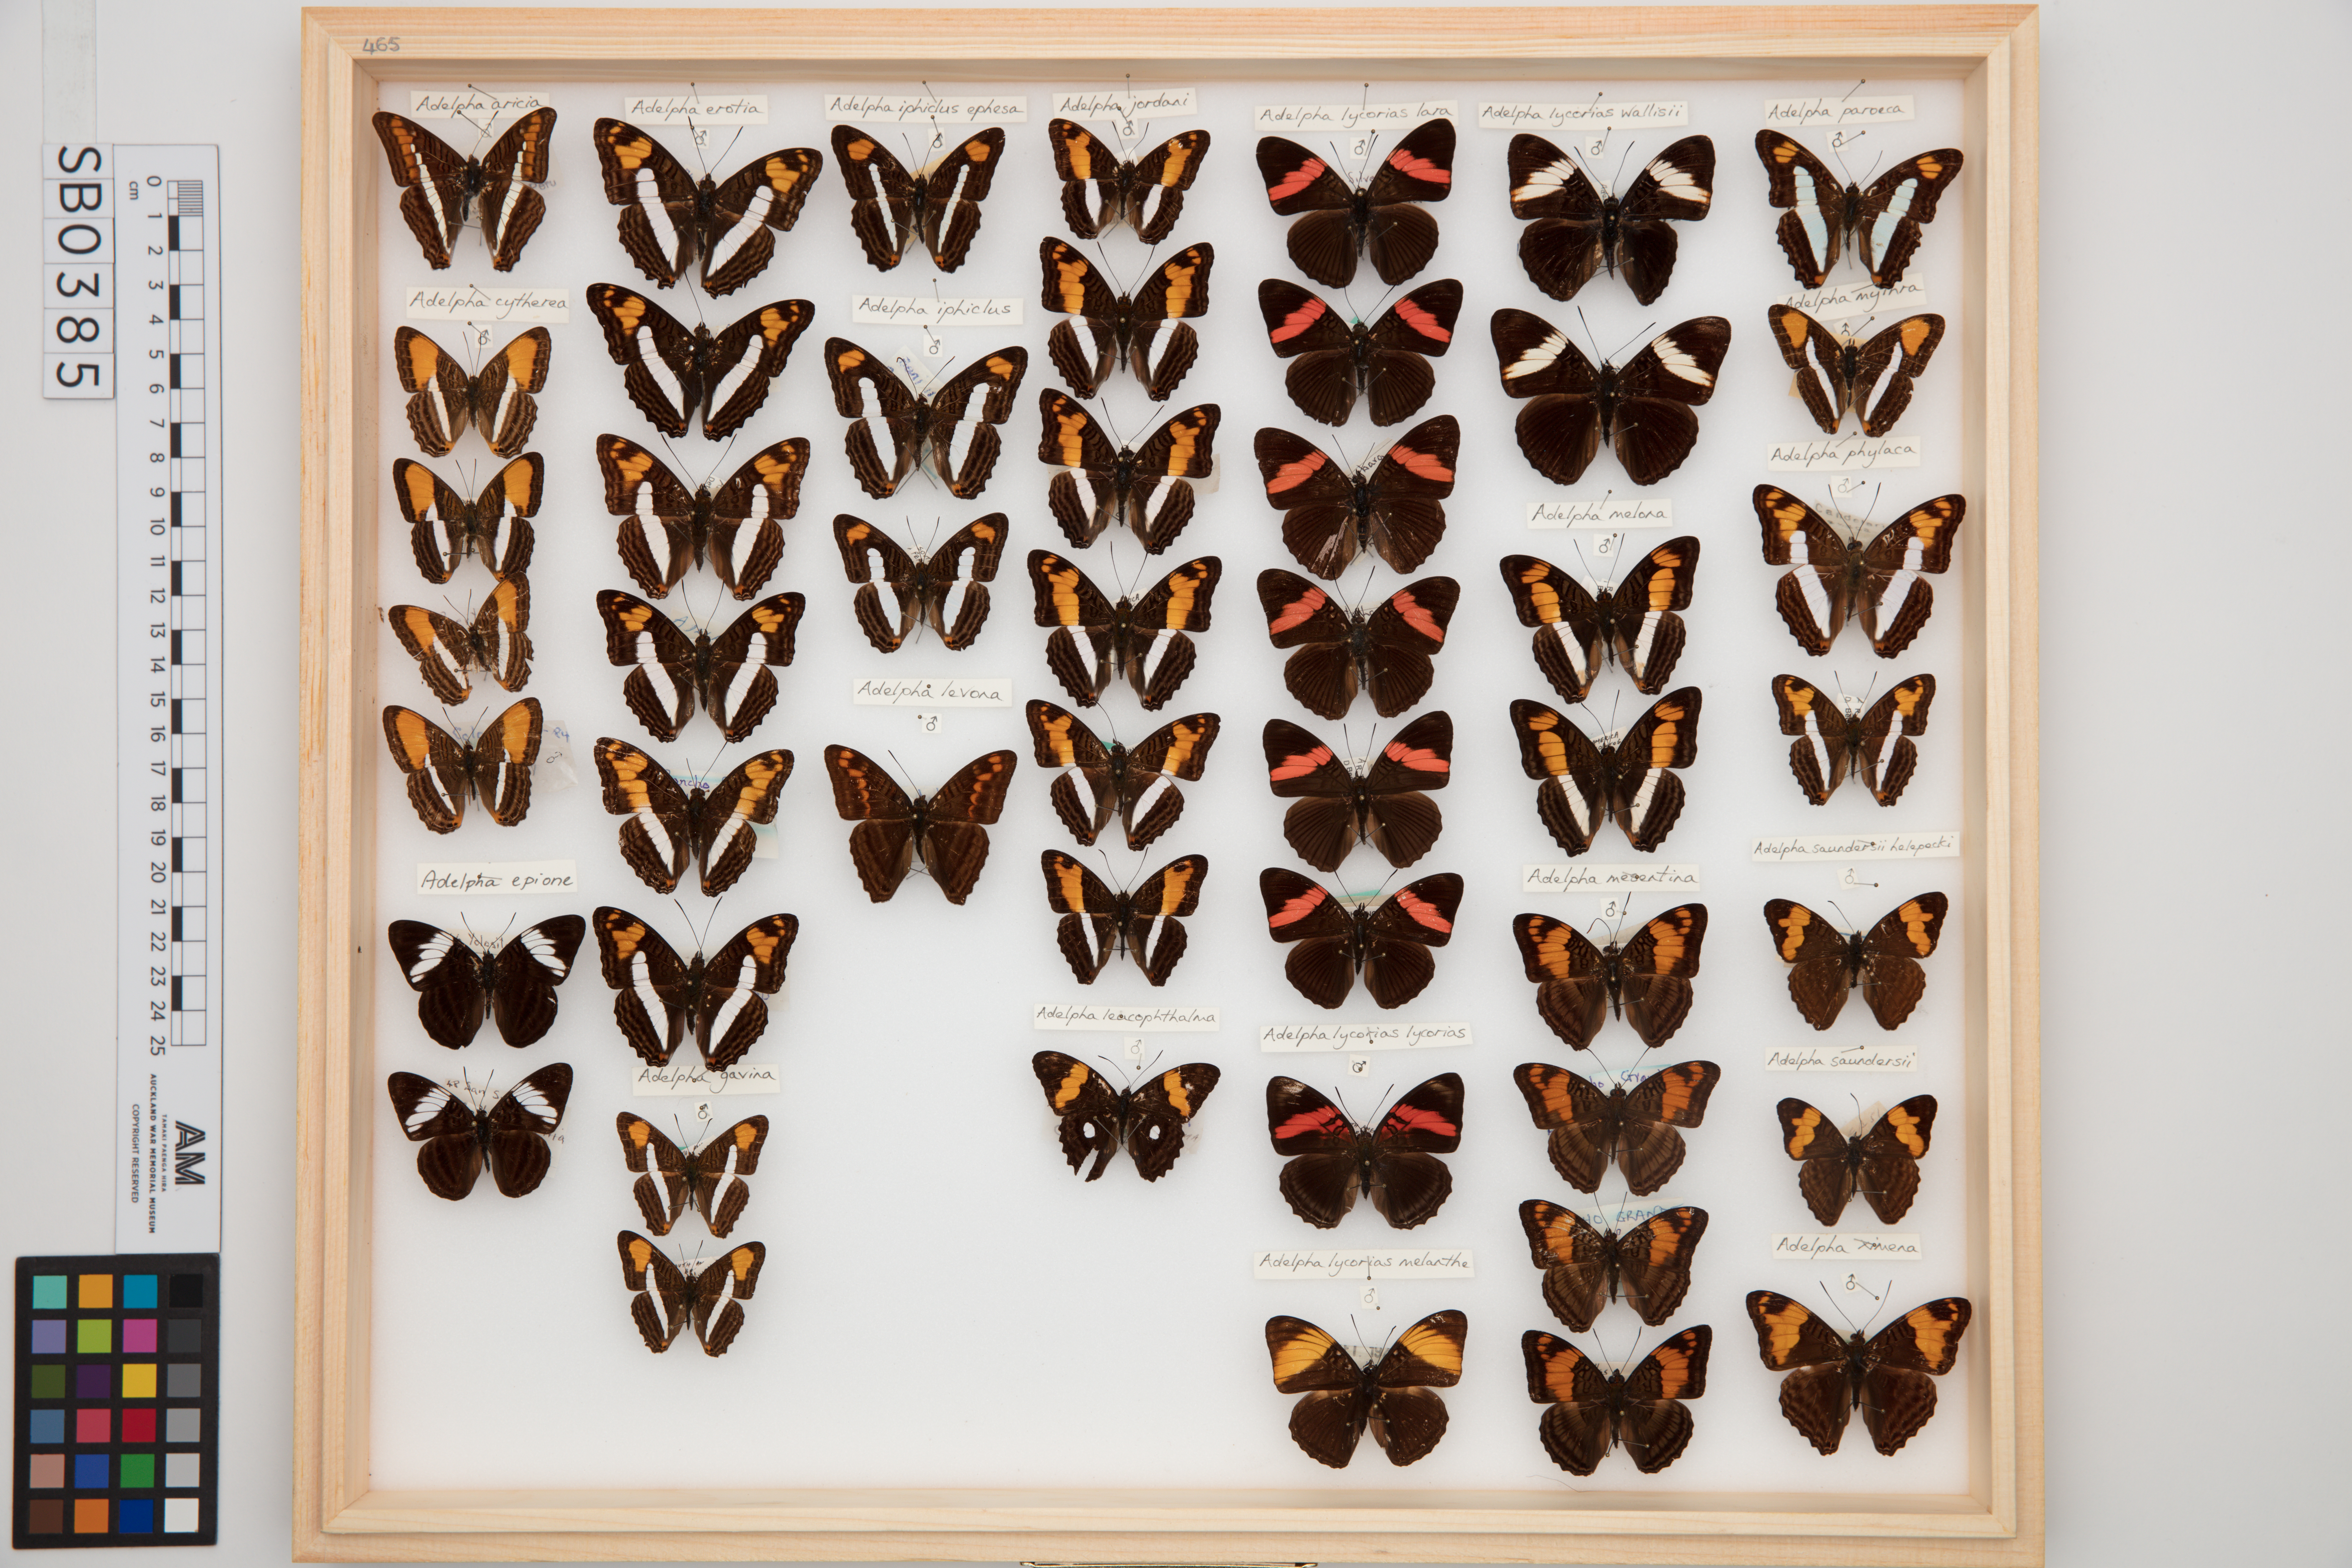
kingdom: Animalia
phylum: Arthropoda
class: Insecta
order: Lepidoptera
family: Nymphalidae
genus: Limenitis
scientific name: Limenitis isis
